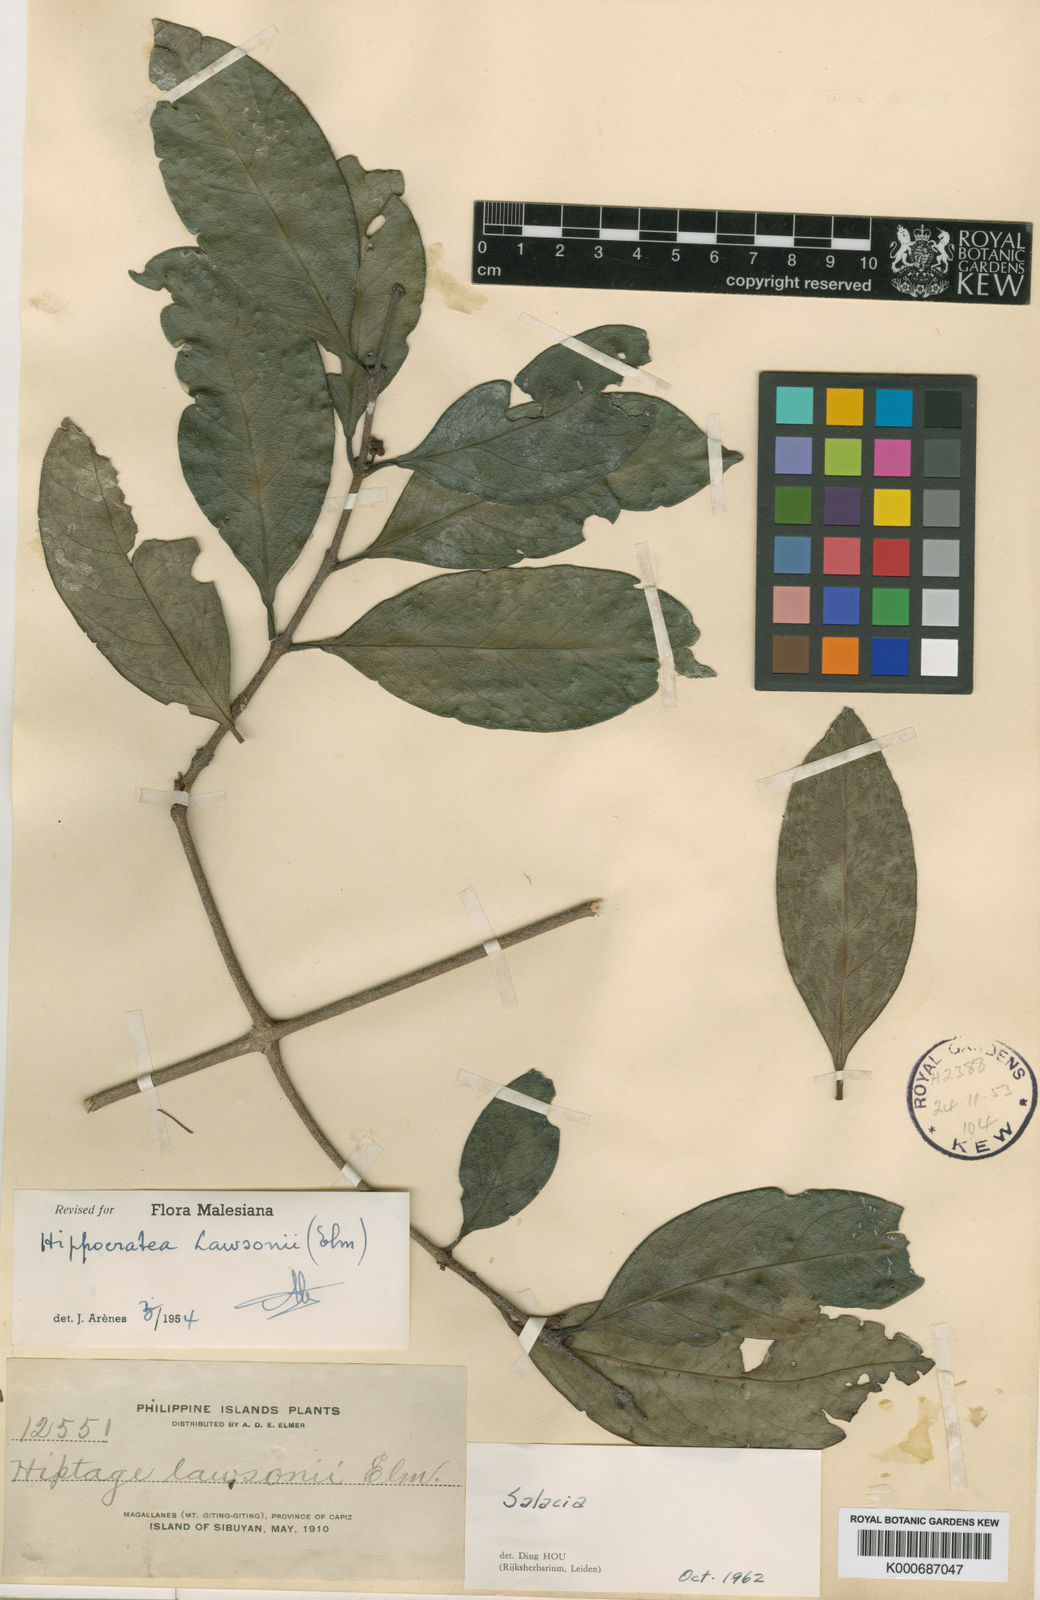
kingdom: Plantae
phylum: Tracheophyta
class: Magnoliopsida
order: Celastrales
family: Celastraceae
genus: Salacia
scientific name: Salacia sororia
